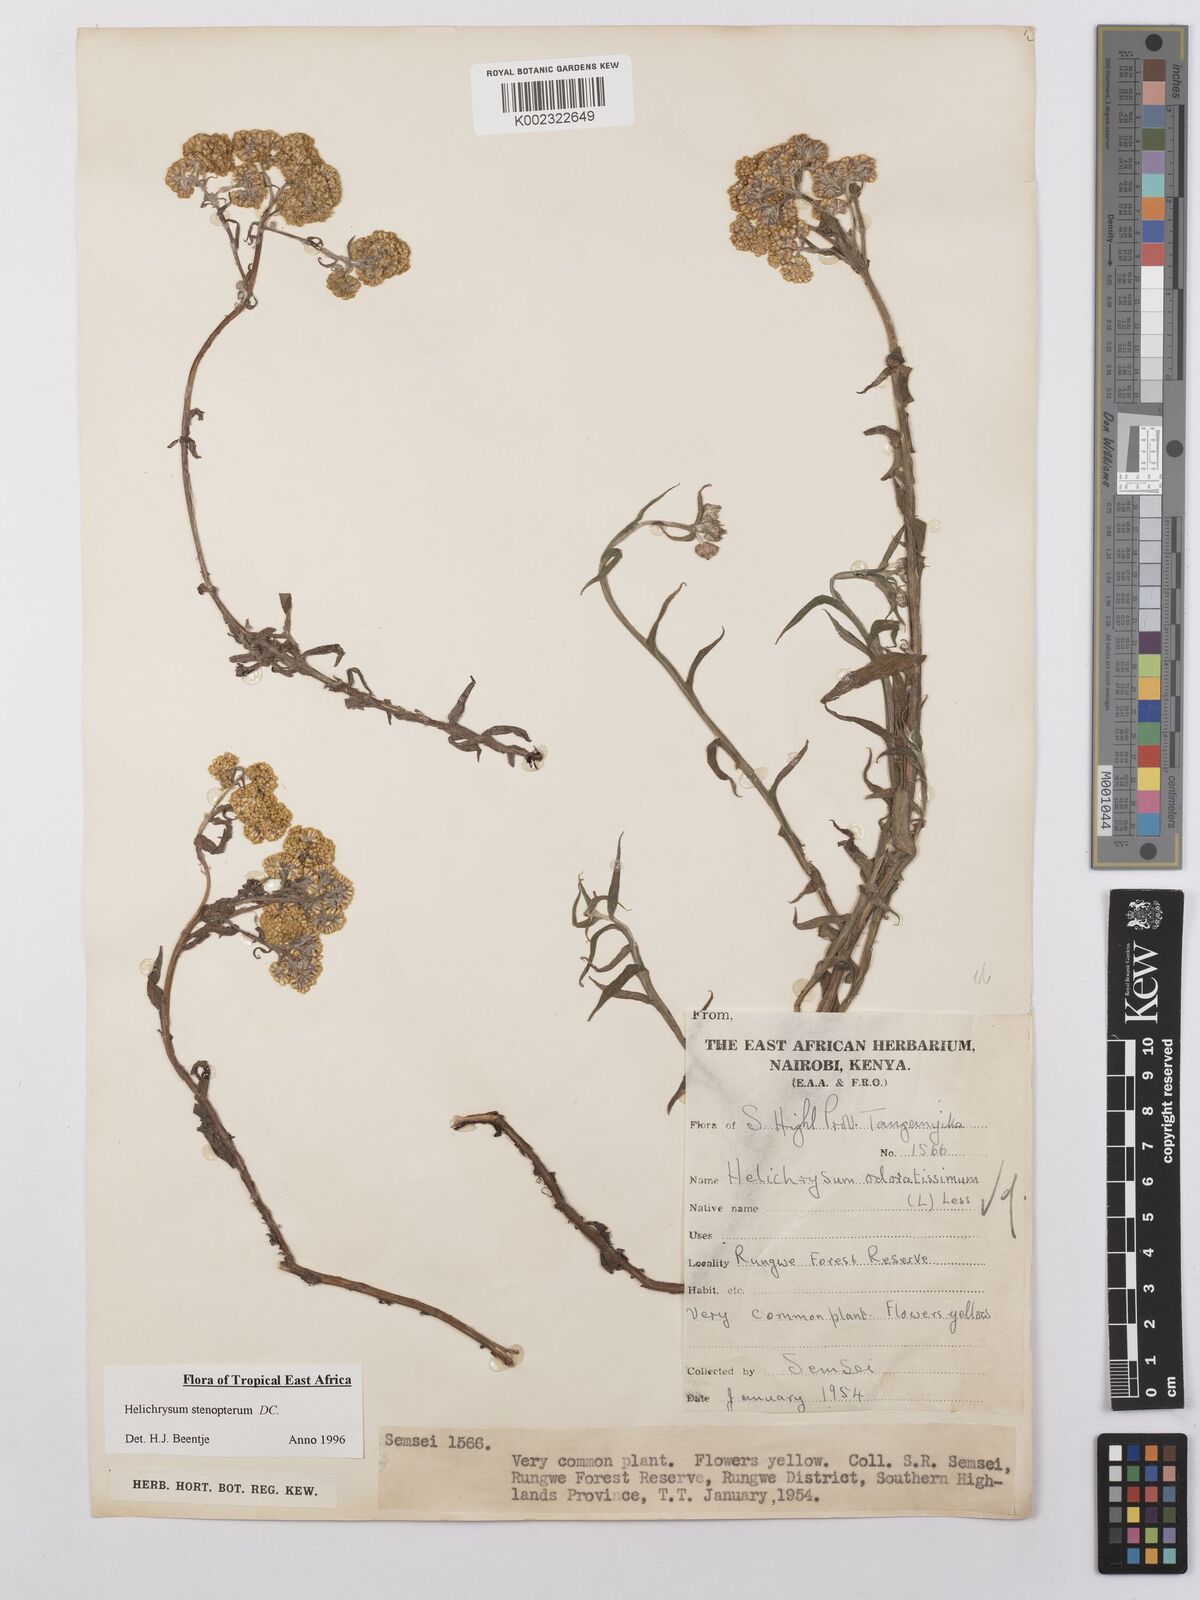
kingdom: Plantae
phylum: Tracheophyta
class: Magnoliopsida
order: Asterales
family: Asteraceae
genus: Helichrysum
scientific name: Helichrysum stenopterum
